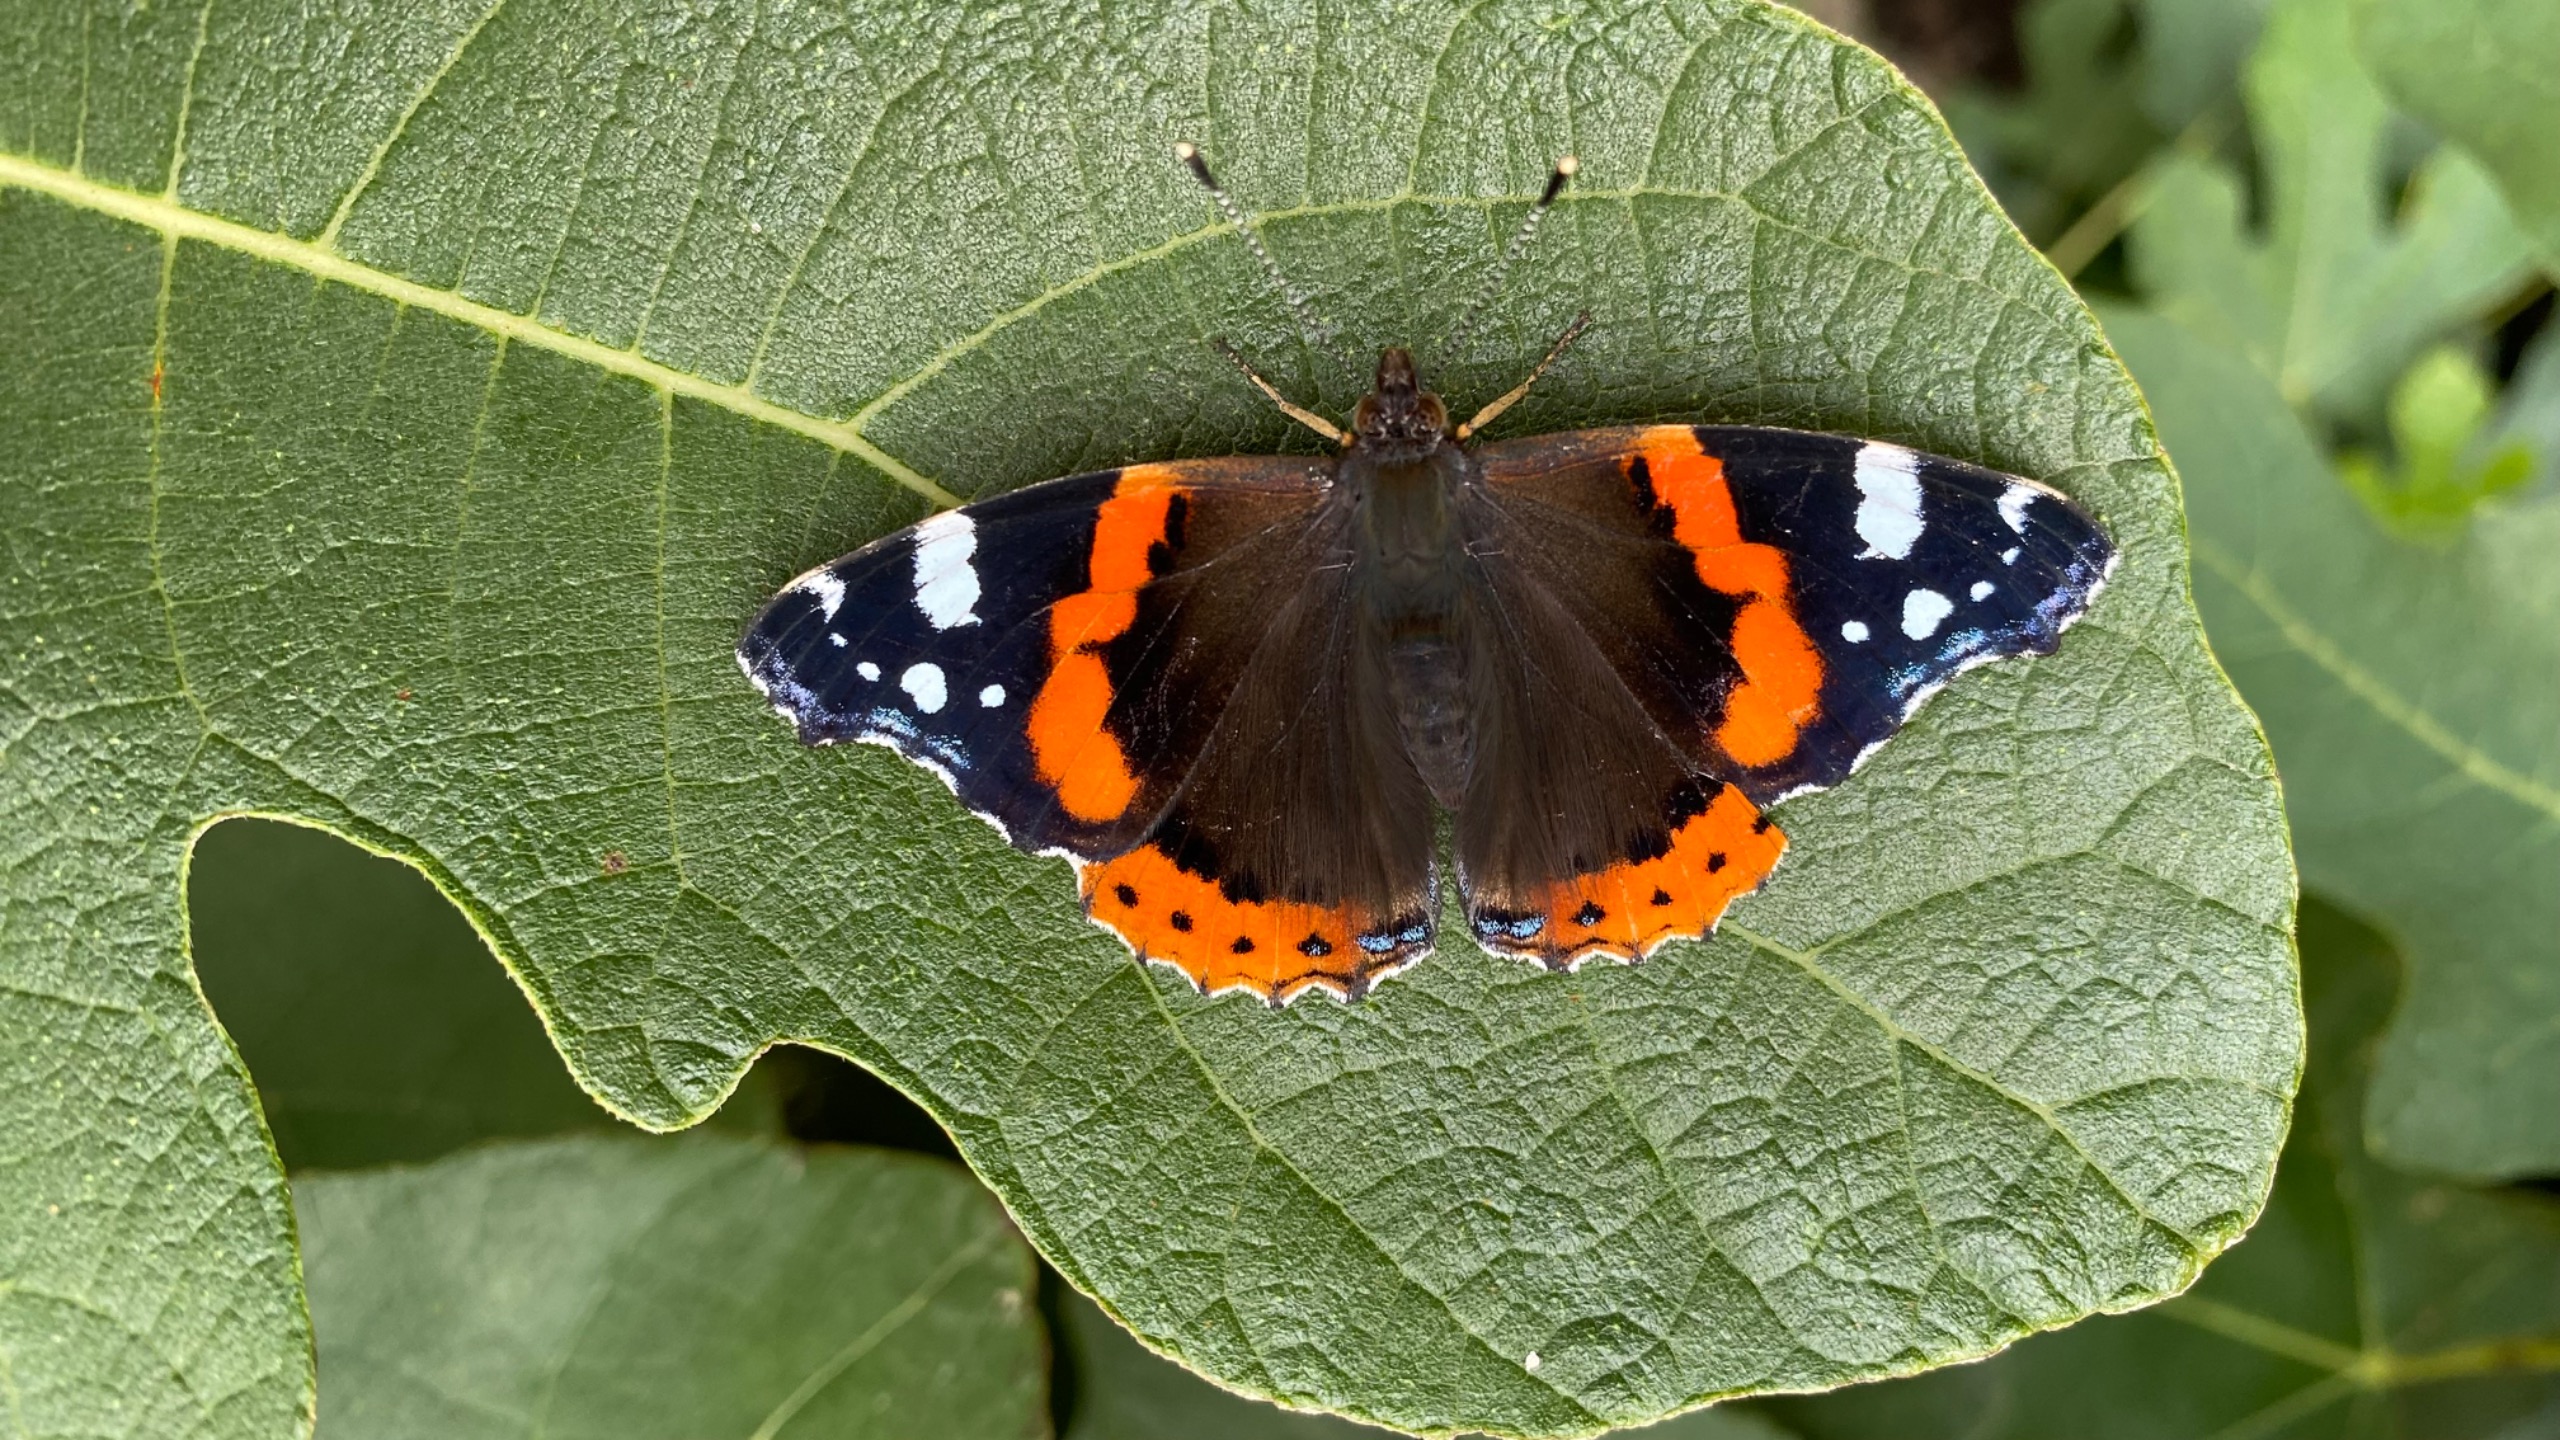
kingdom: Animalia
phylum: Arthropoda
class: Insecta
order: Lepidoptera
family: Nymphalidae
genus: Vanessa
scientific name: Vanessa atalanta
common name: Admiral
